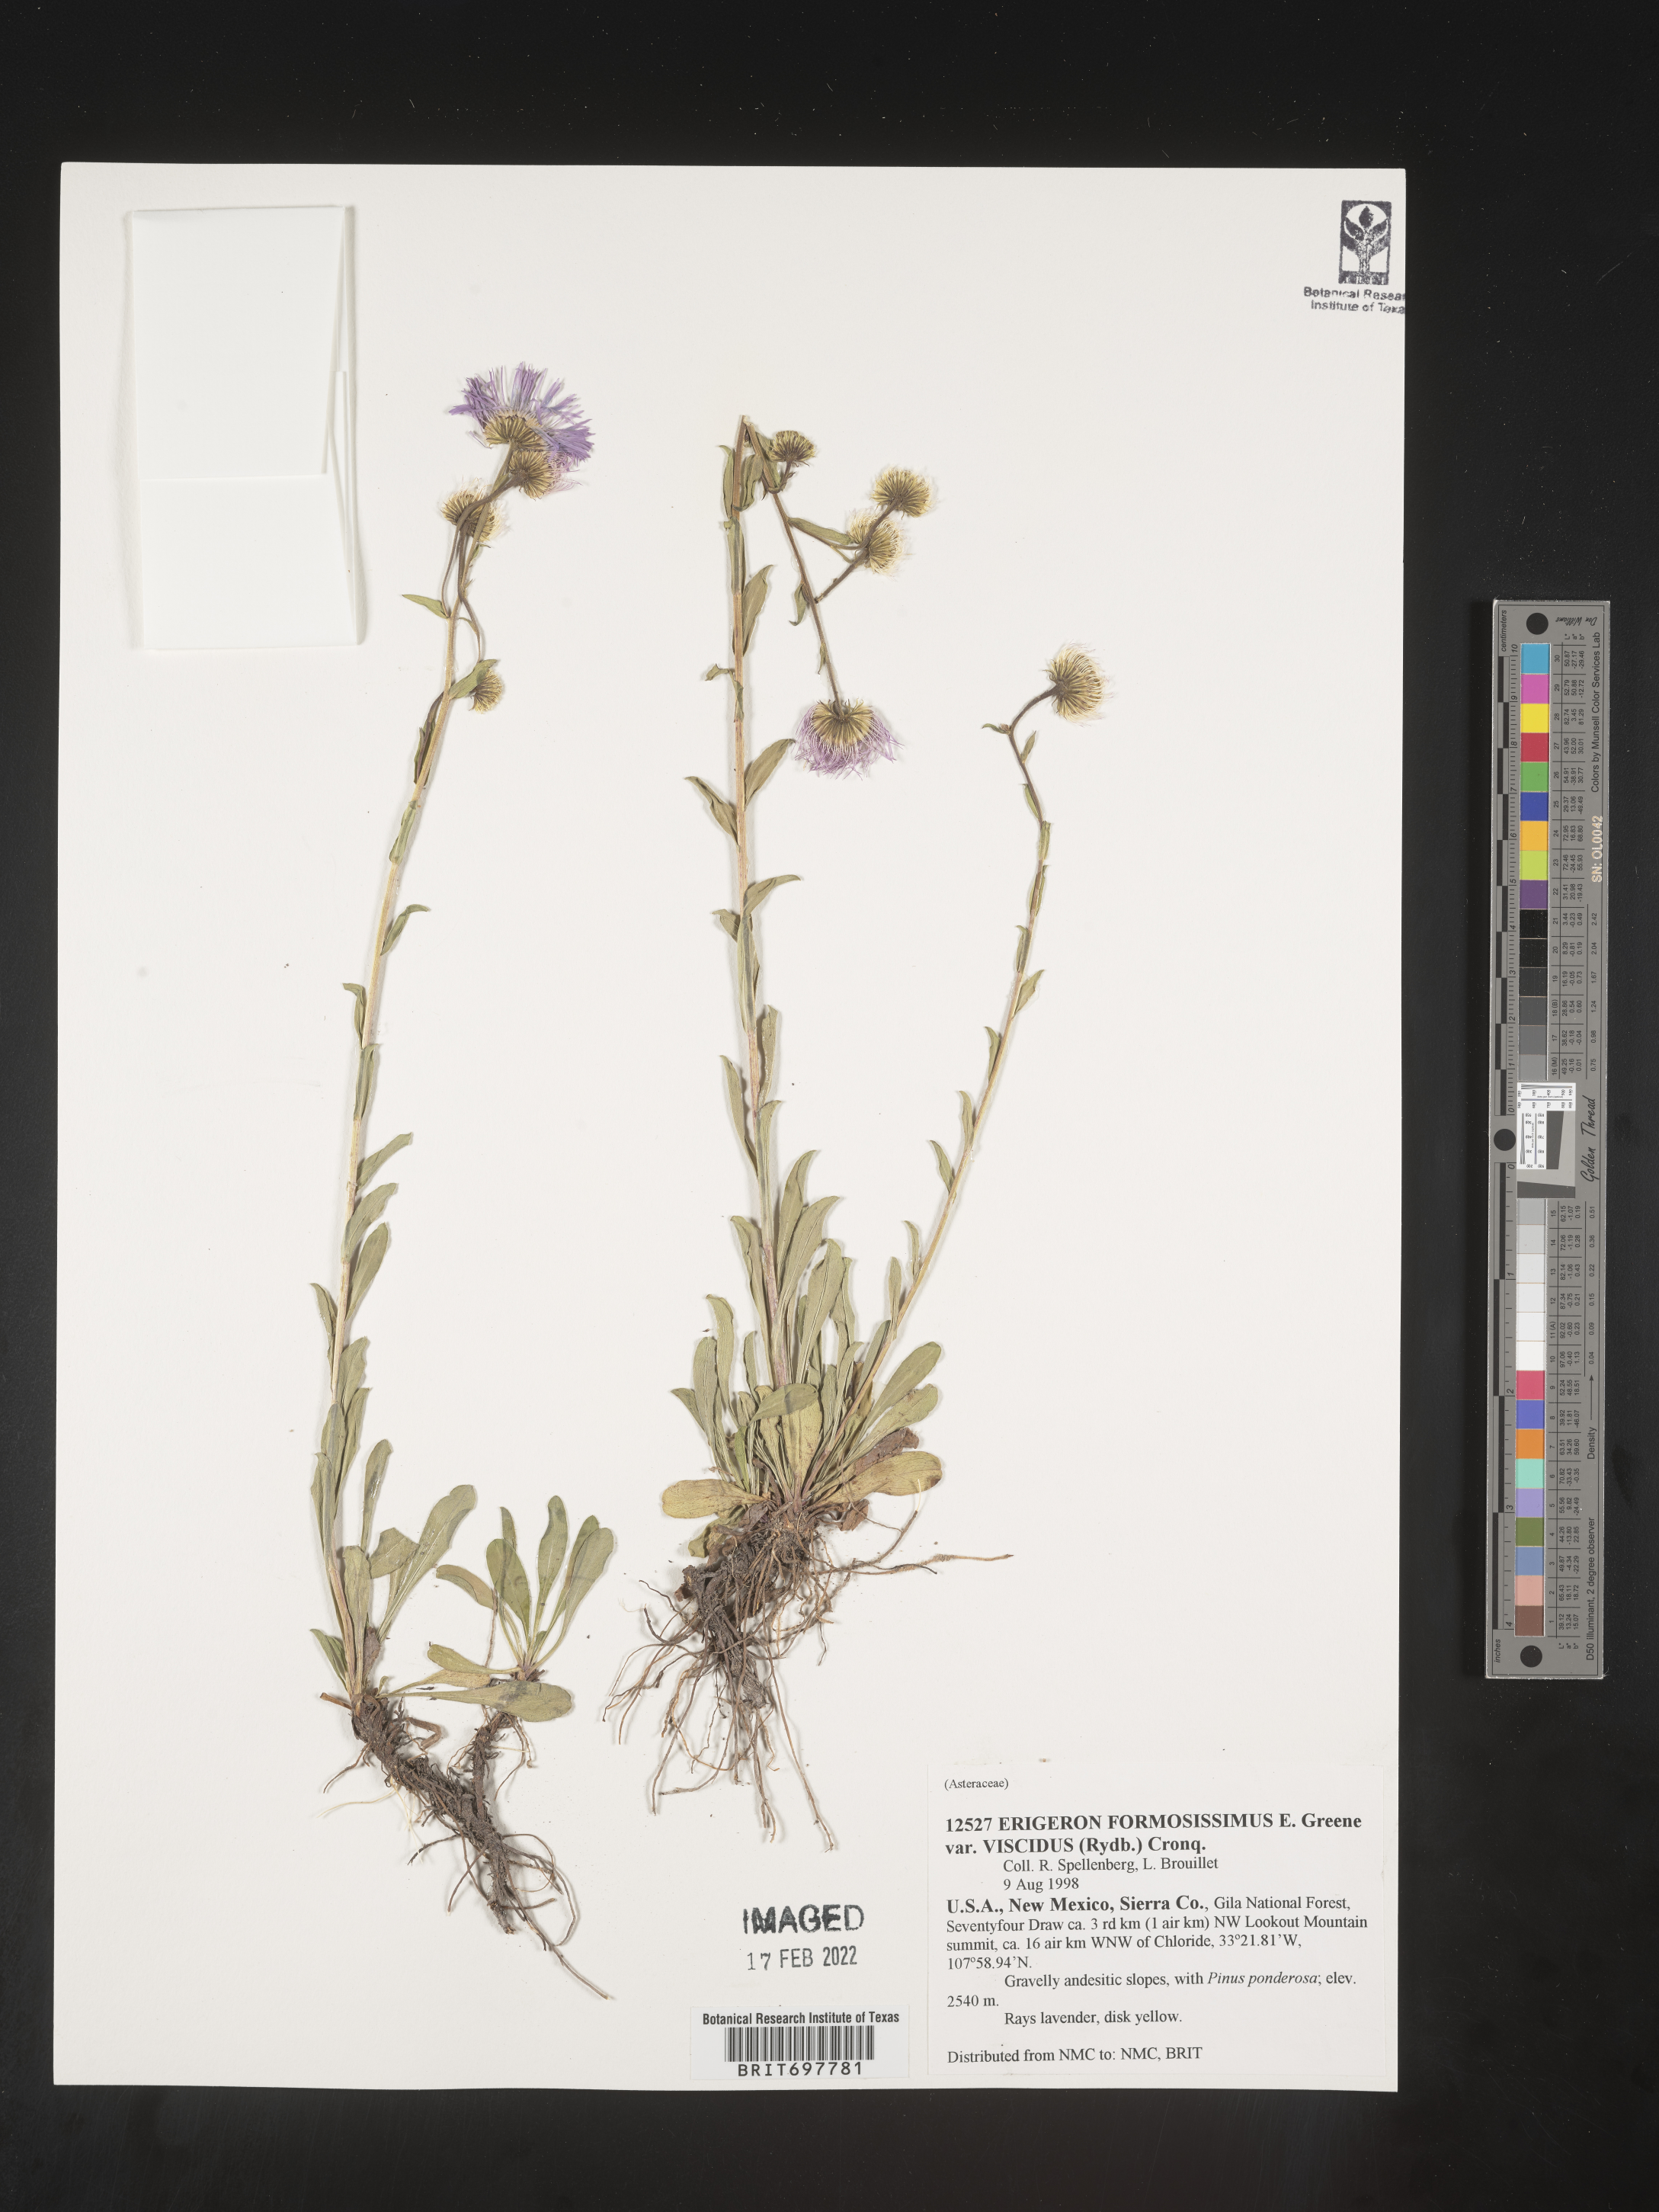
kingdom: Plantae
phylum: Tracheophyta
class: Magnoliopsida
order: Asterales
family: Asteraceae
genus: Erigeron
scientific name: Erigeron formosissimus
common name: Beautiful fleabane
